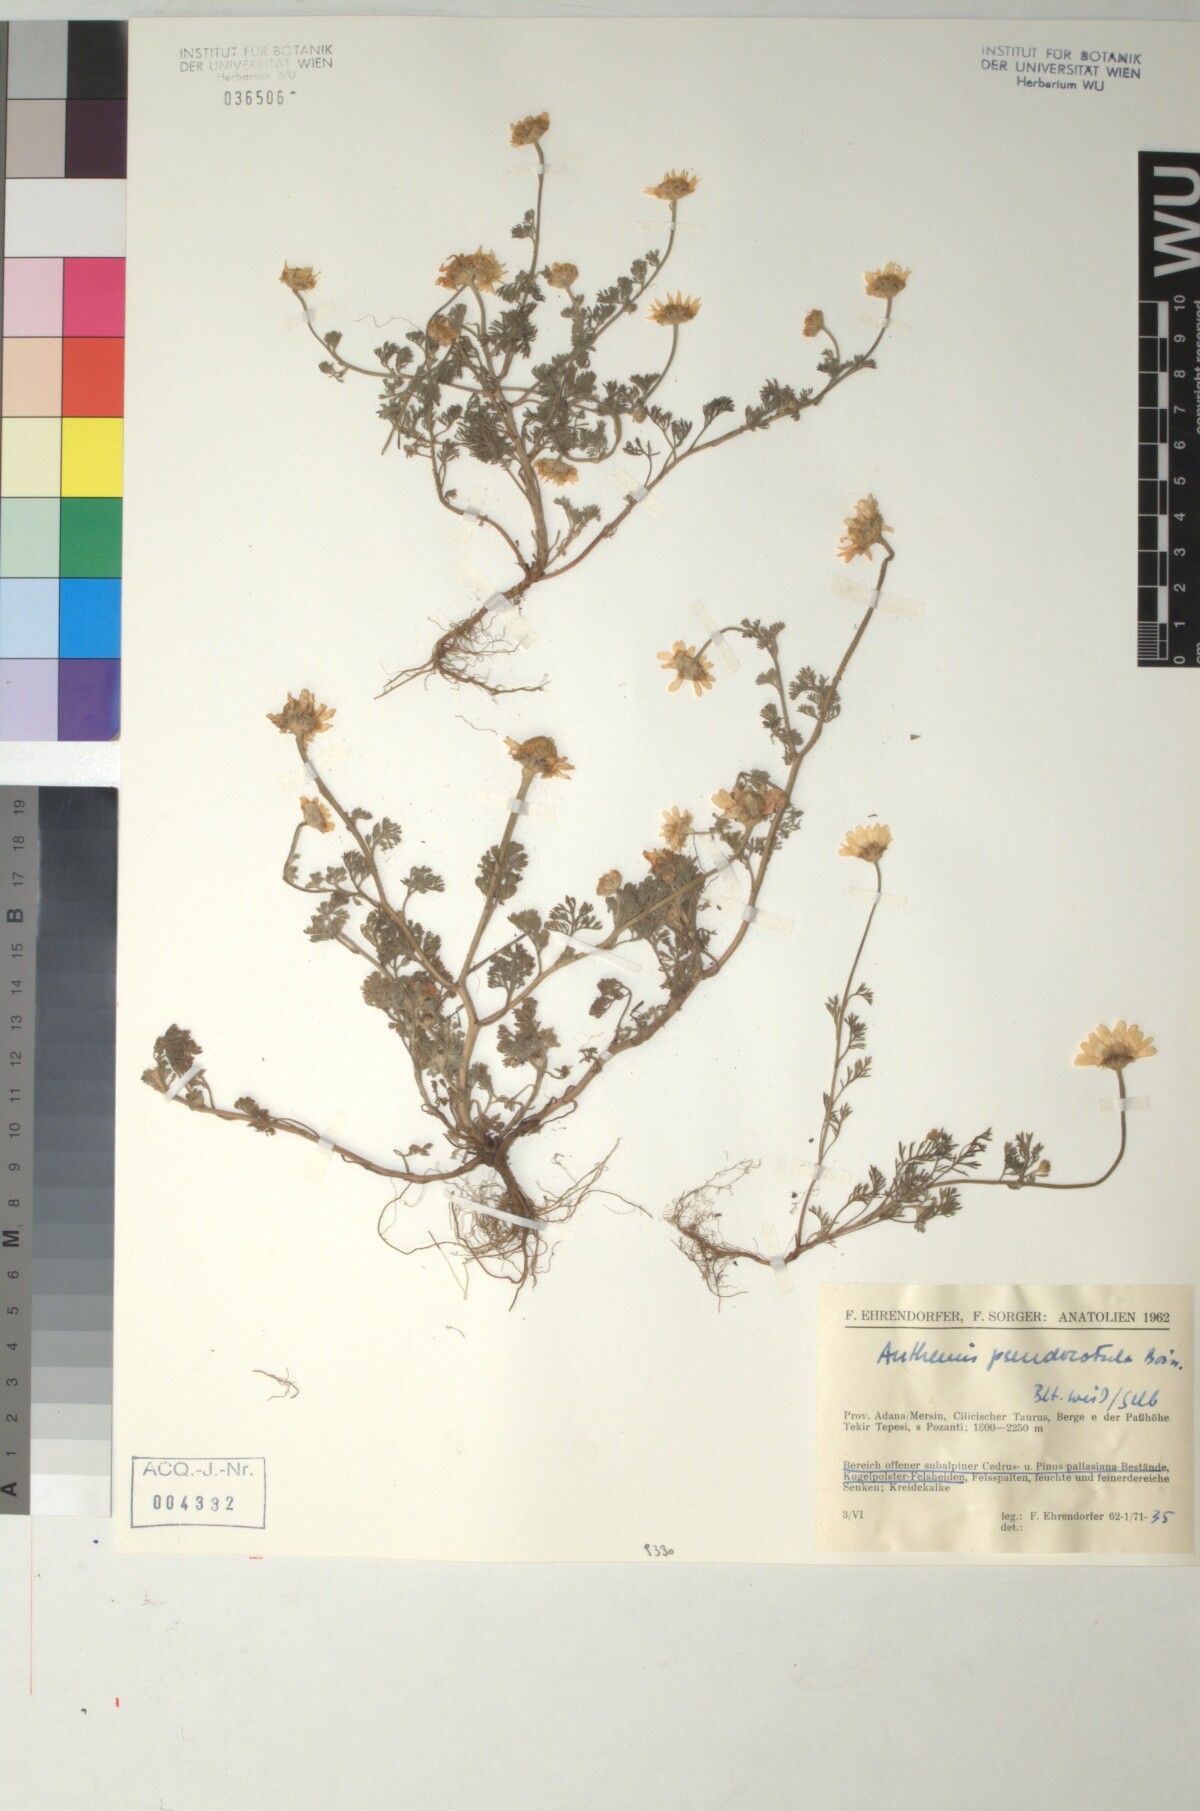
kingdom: Plantae
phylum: Tracheophyta
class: Magnoliopsida
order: Asterales
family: Asteraceae
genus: Anthemis
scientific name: Anthemis pseudocotula
